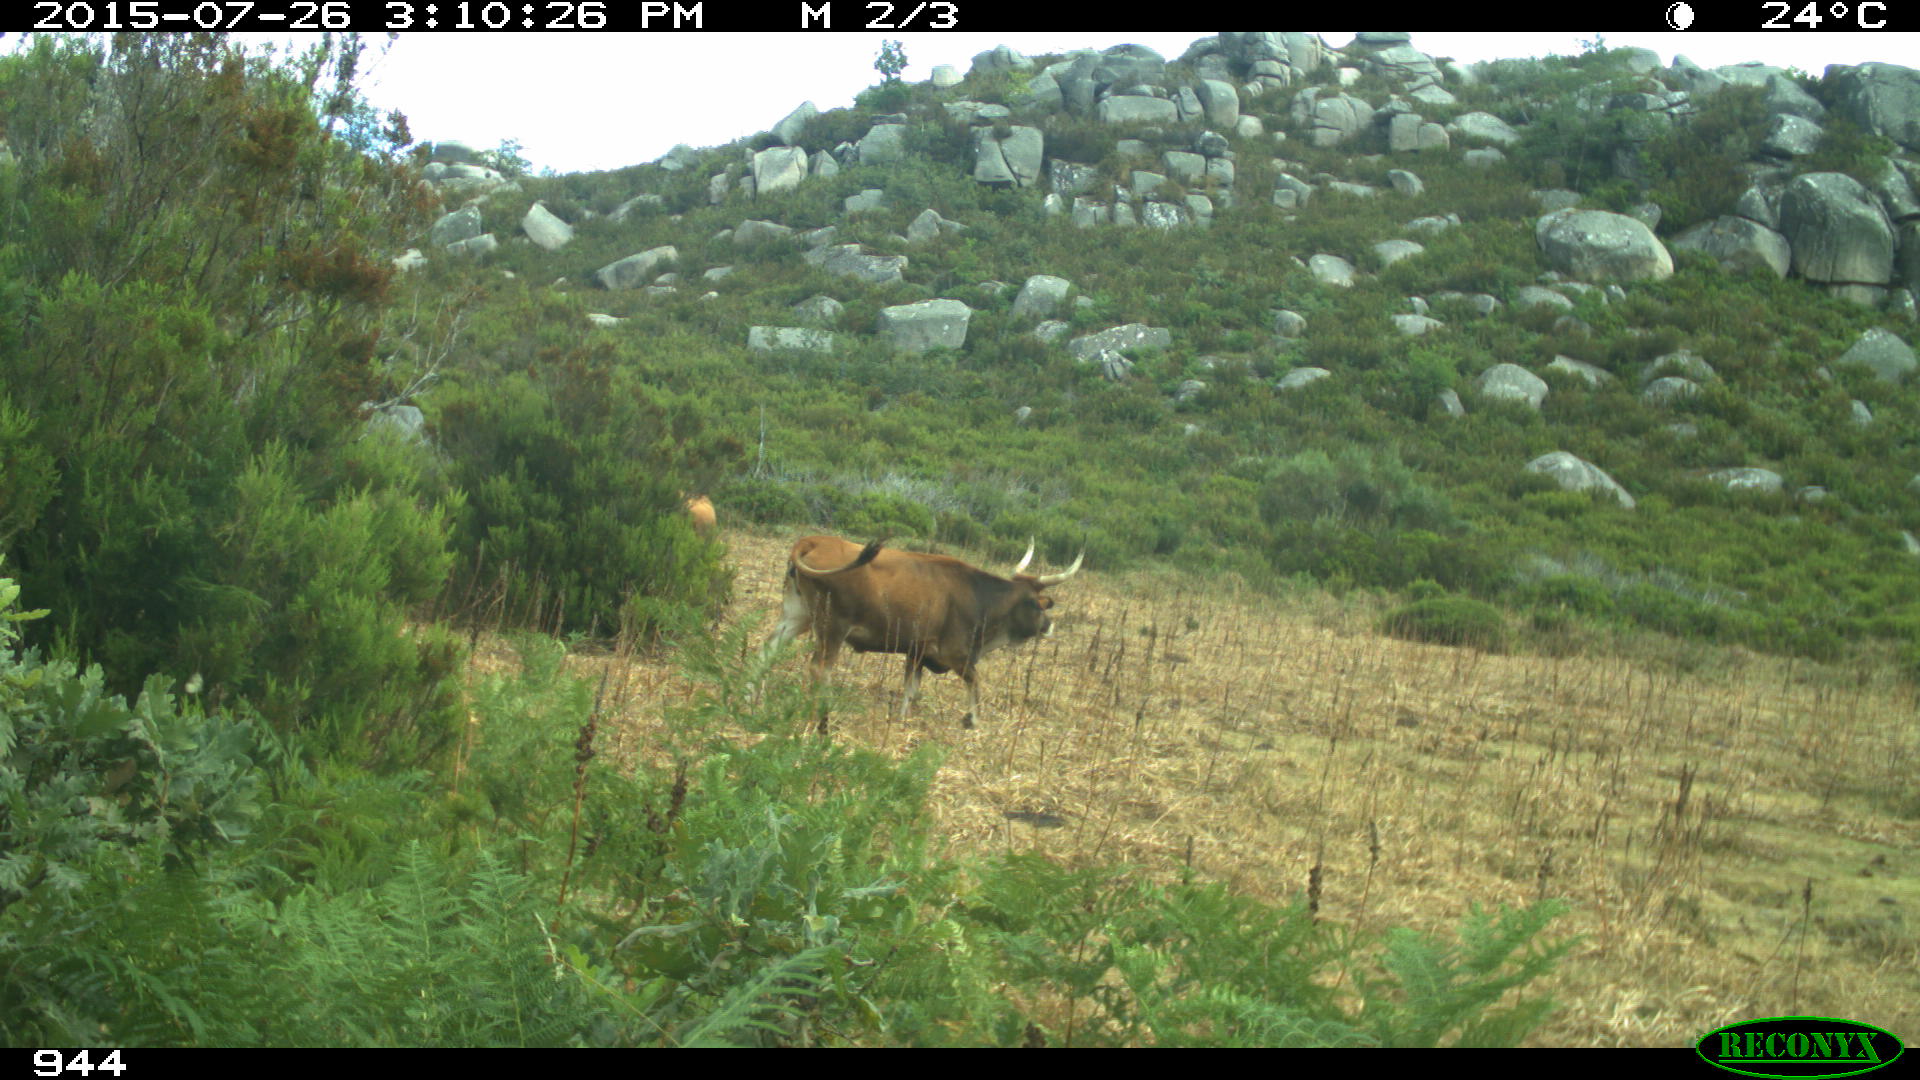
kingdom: Animalia
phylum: Chordata
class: Mammalia
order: Artiodactyla
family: Bovidae
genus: Bos
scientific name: Bos taurus
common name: Domesticated cattle
